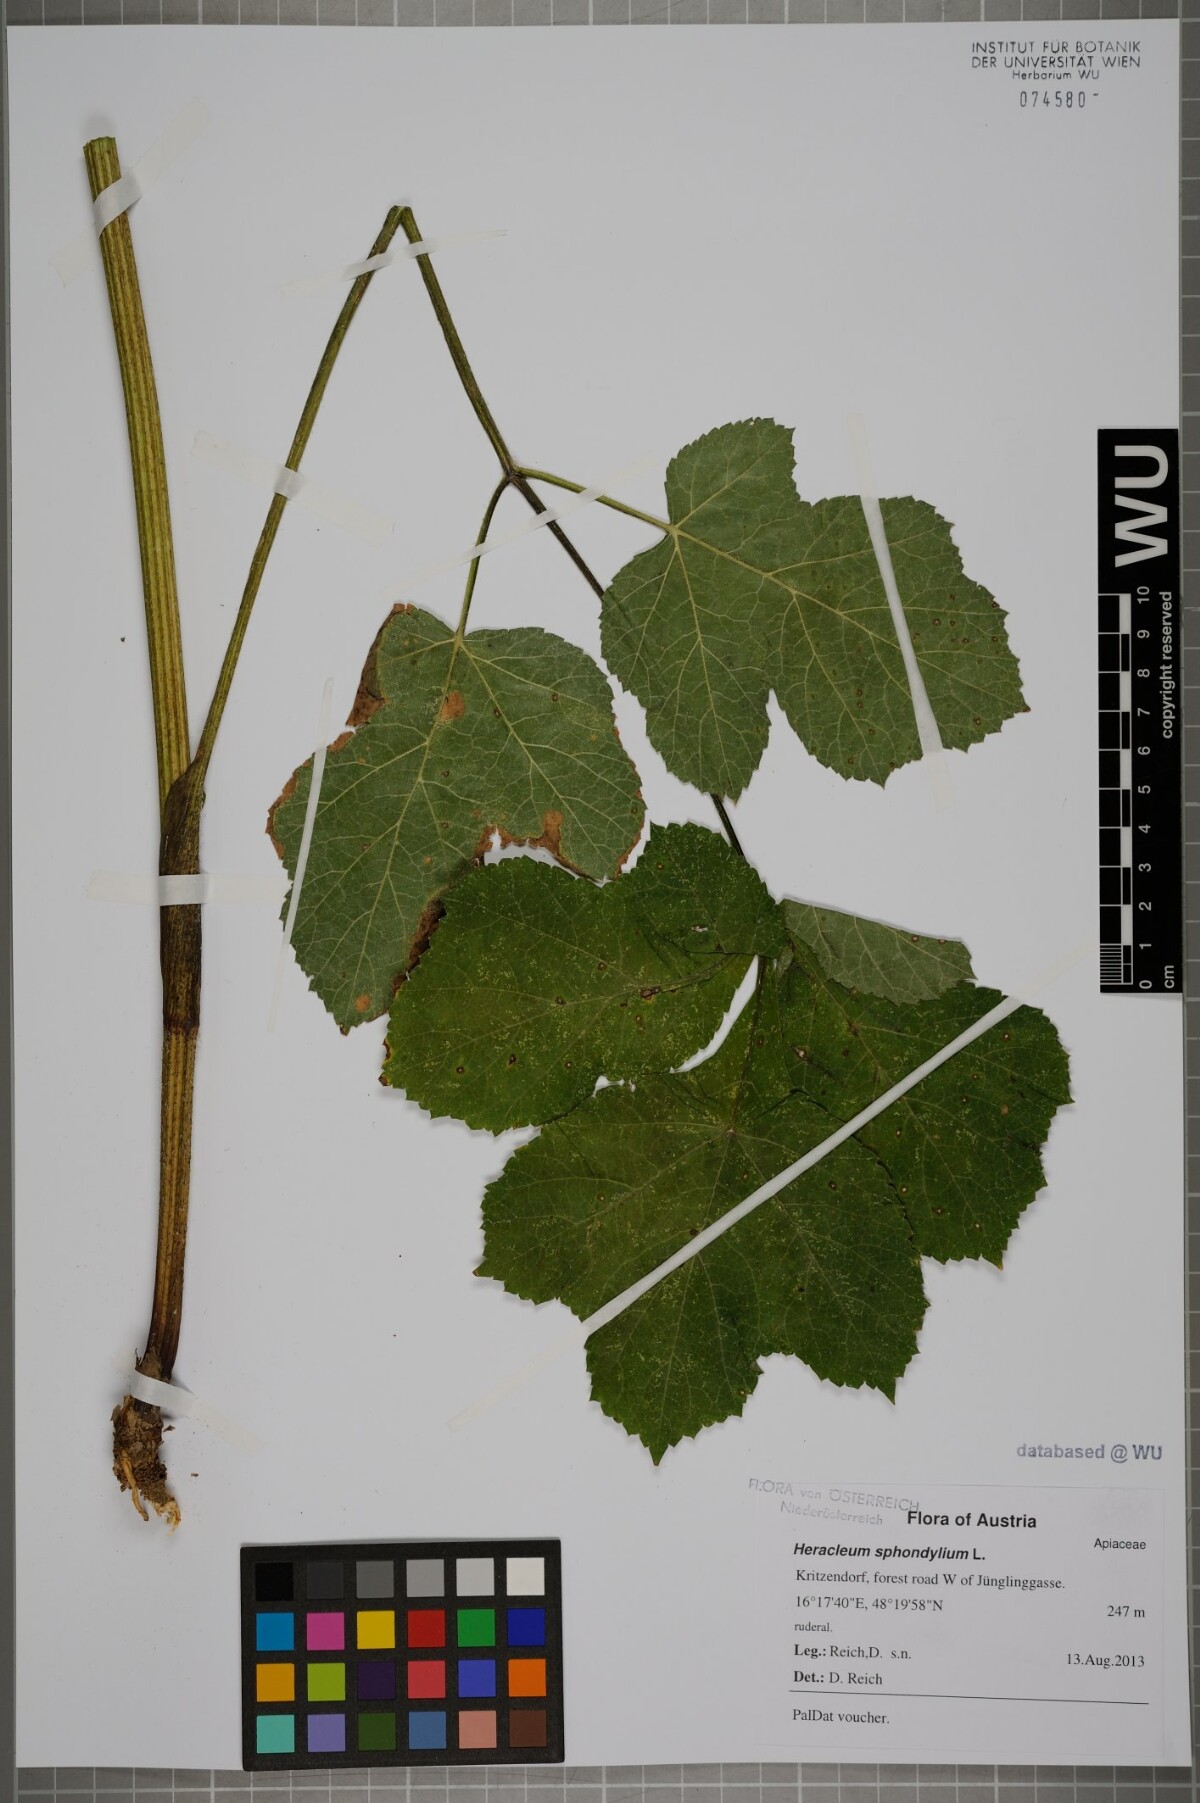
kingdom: Plantae
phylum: Tracheophyta
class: Magnoliopsida
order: Apiales
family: Apiaceae
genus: Heracleum
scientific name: Heracleum sphondylium
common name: Hogweed
